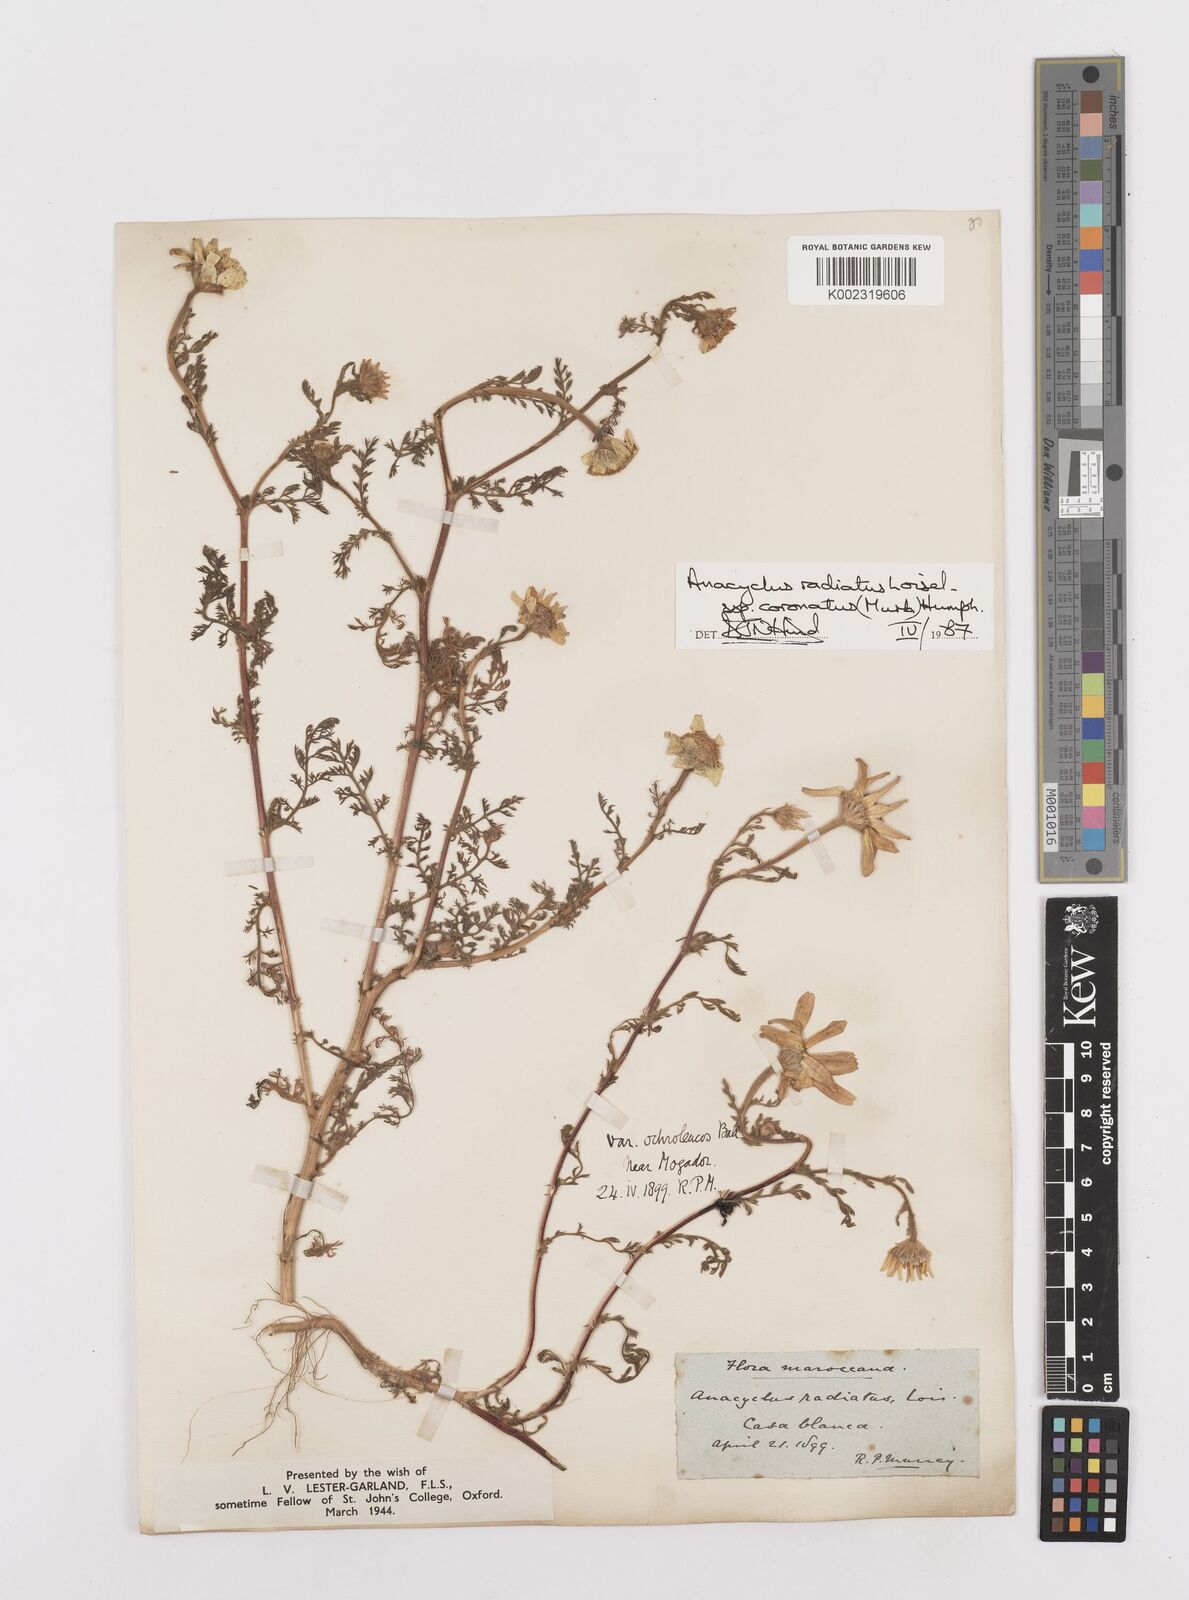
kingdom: Plantae
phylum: Tracheophyta
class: Magnoliopsida
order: Asterales
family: Asteraceae
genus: Anacyclus
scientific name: Anacyclus radiatus
